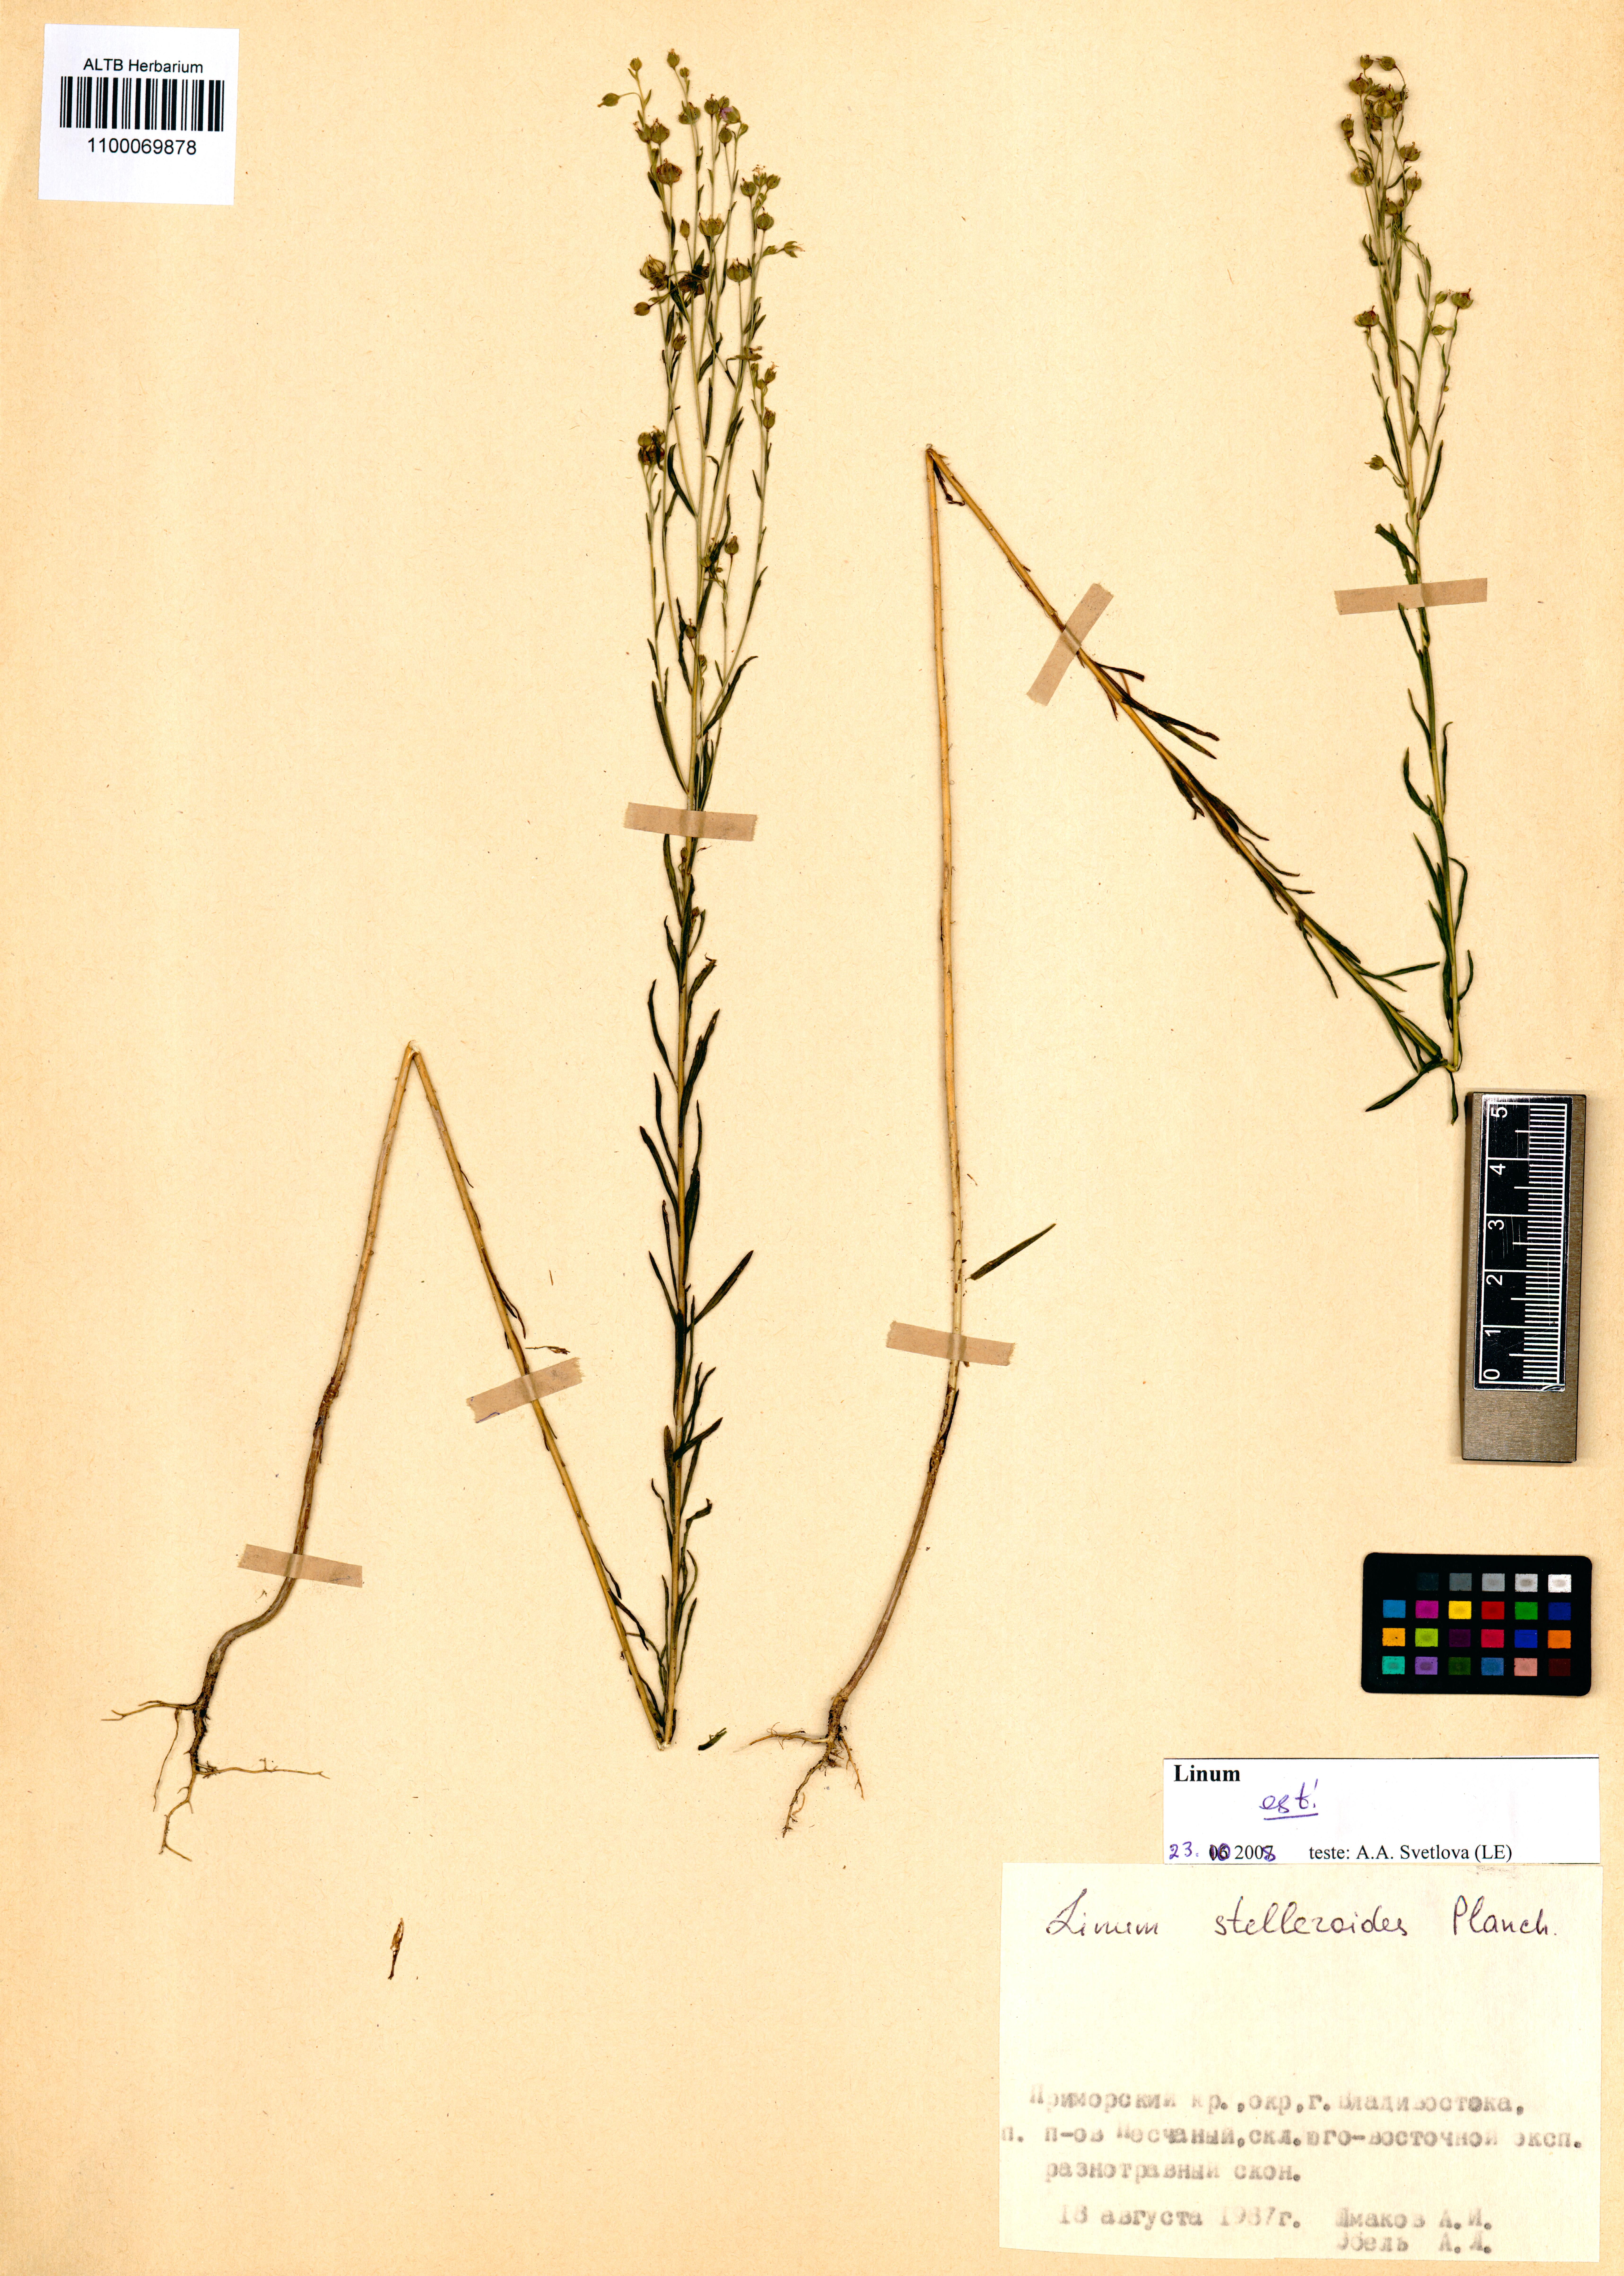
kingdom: Plantae
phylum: Tracheophyta
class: Magnoliopsida
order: Malpighiales
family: Linaceae
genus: Linum
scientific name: Linum stelleroides
